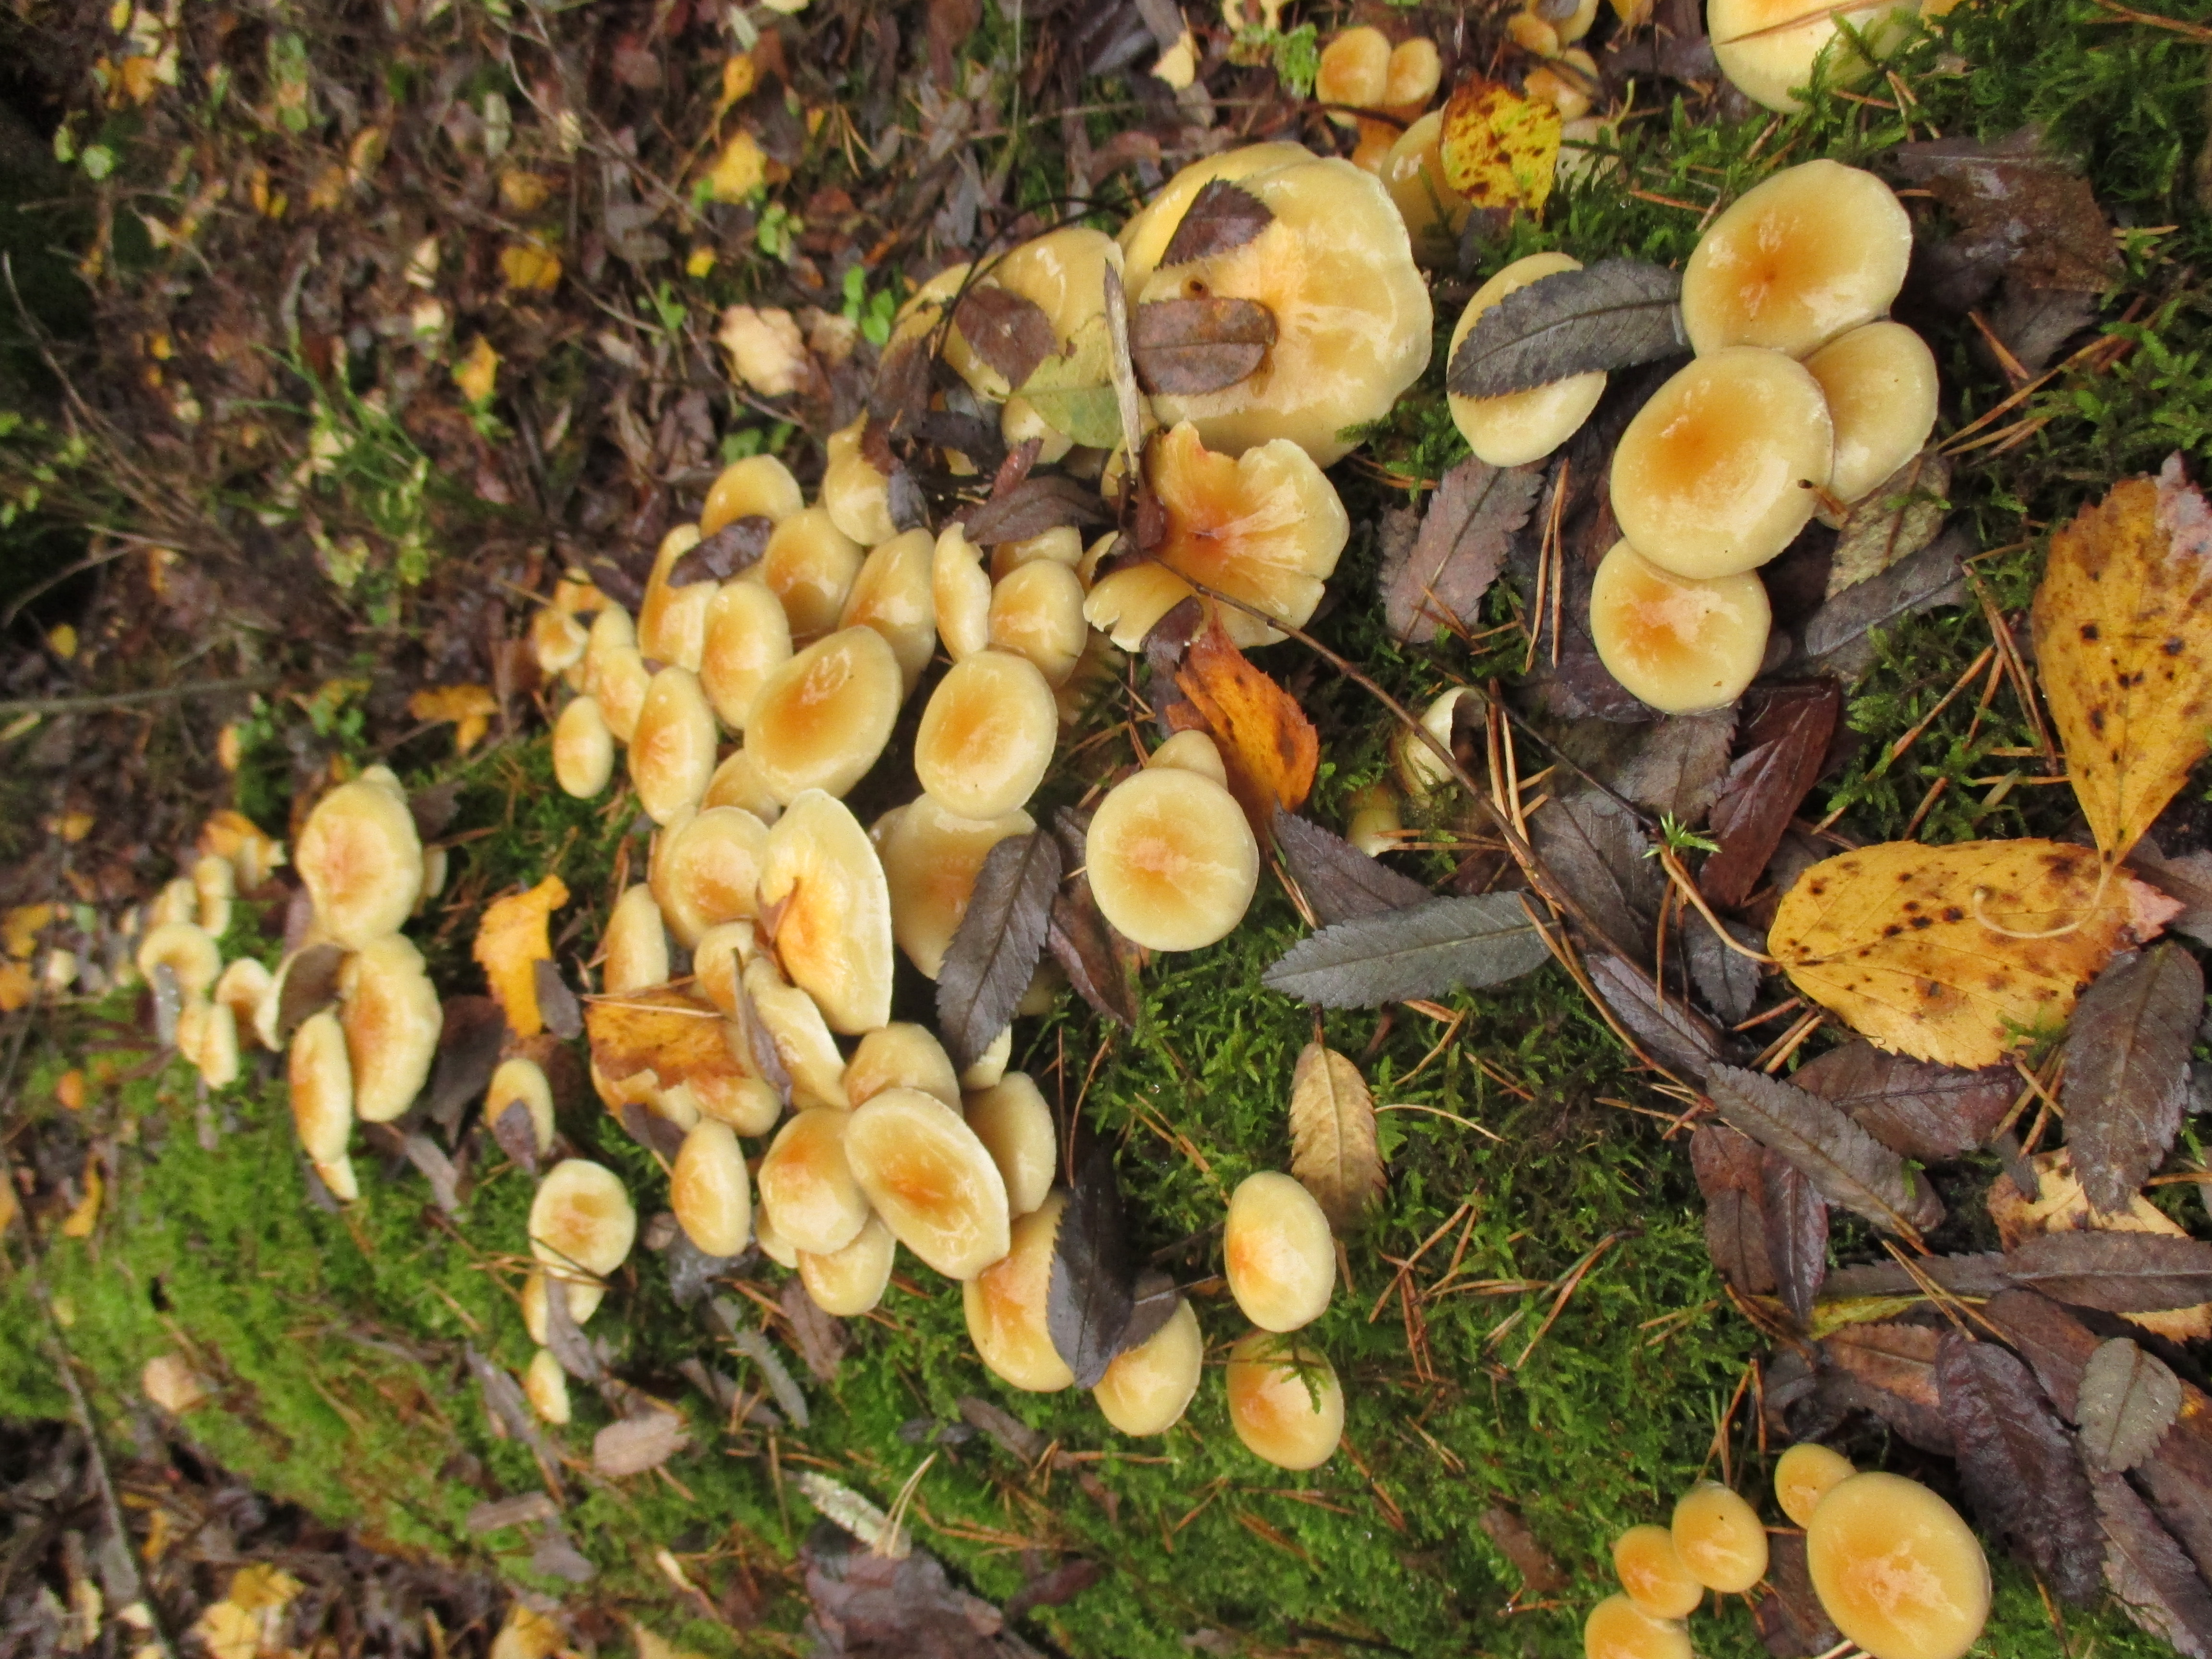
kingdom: Fungi
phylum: Basidiomycota
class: Agaricomycetes
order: Agaricales
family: Strophariaceae
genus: Hypholoma
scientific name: Hypholoma capnoides
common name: Conifer tuft
